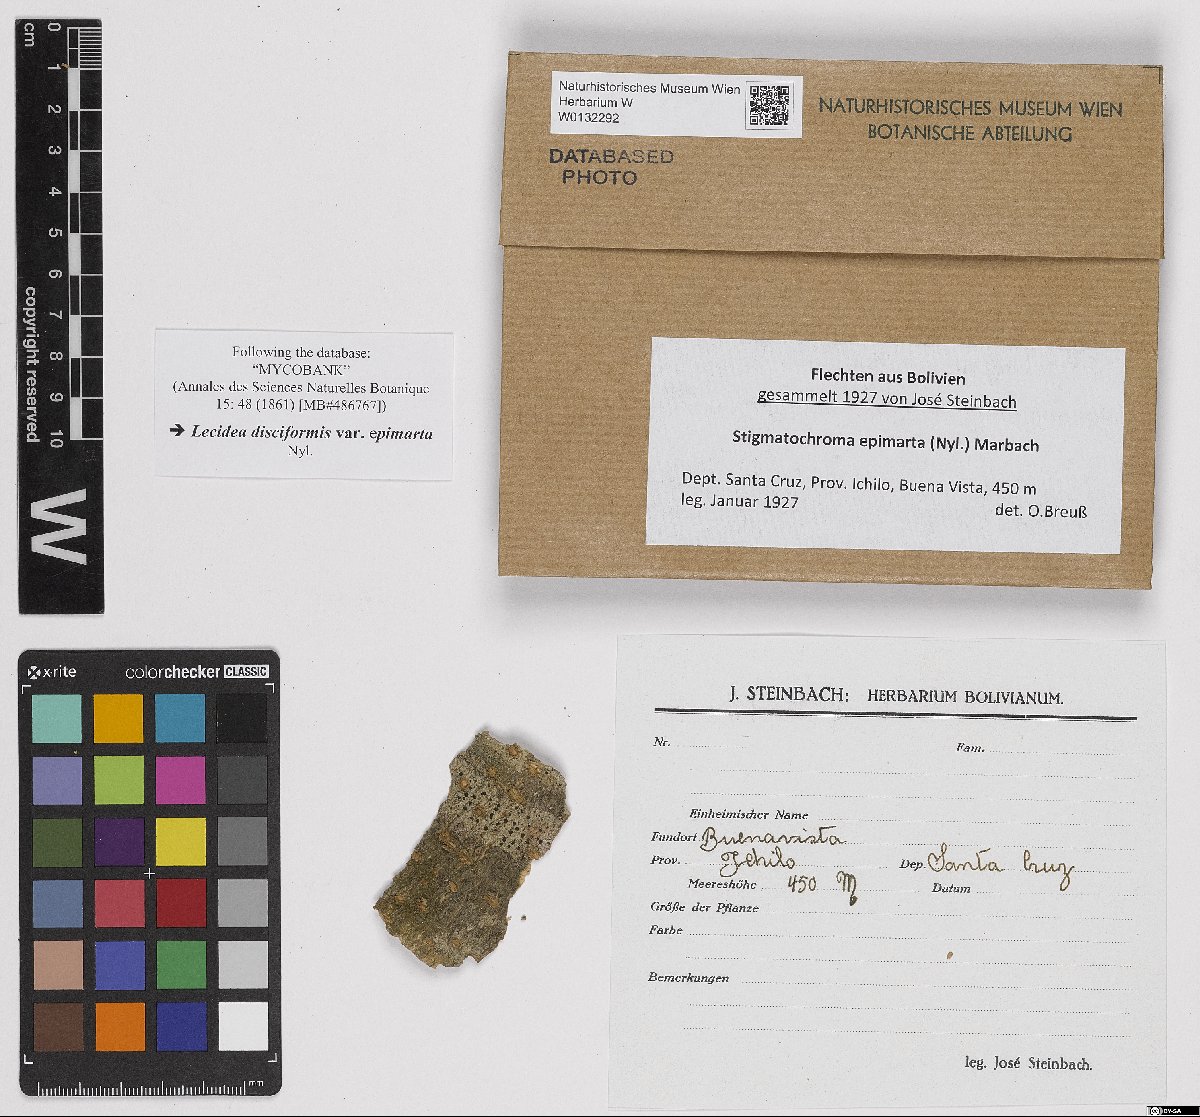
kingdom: Fungi
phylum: Ascomycota
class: Lecanoromycetes
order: Caliciales
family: Caliciaceae
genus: Stigmatochroma
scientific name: Stigmatochroma epimartum
